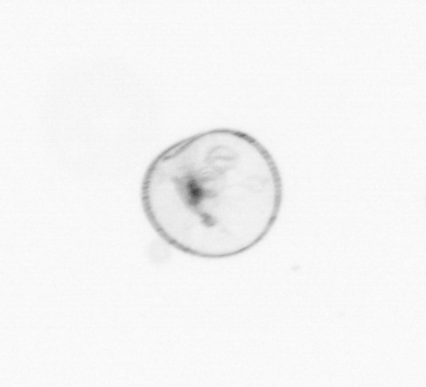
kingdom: Chromista
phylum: Myzozoa
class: Dinophyceae
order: Noctilucales
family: Noctilucaceae
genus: Noctiluca
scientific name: Noctiluca scintillans
